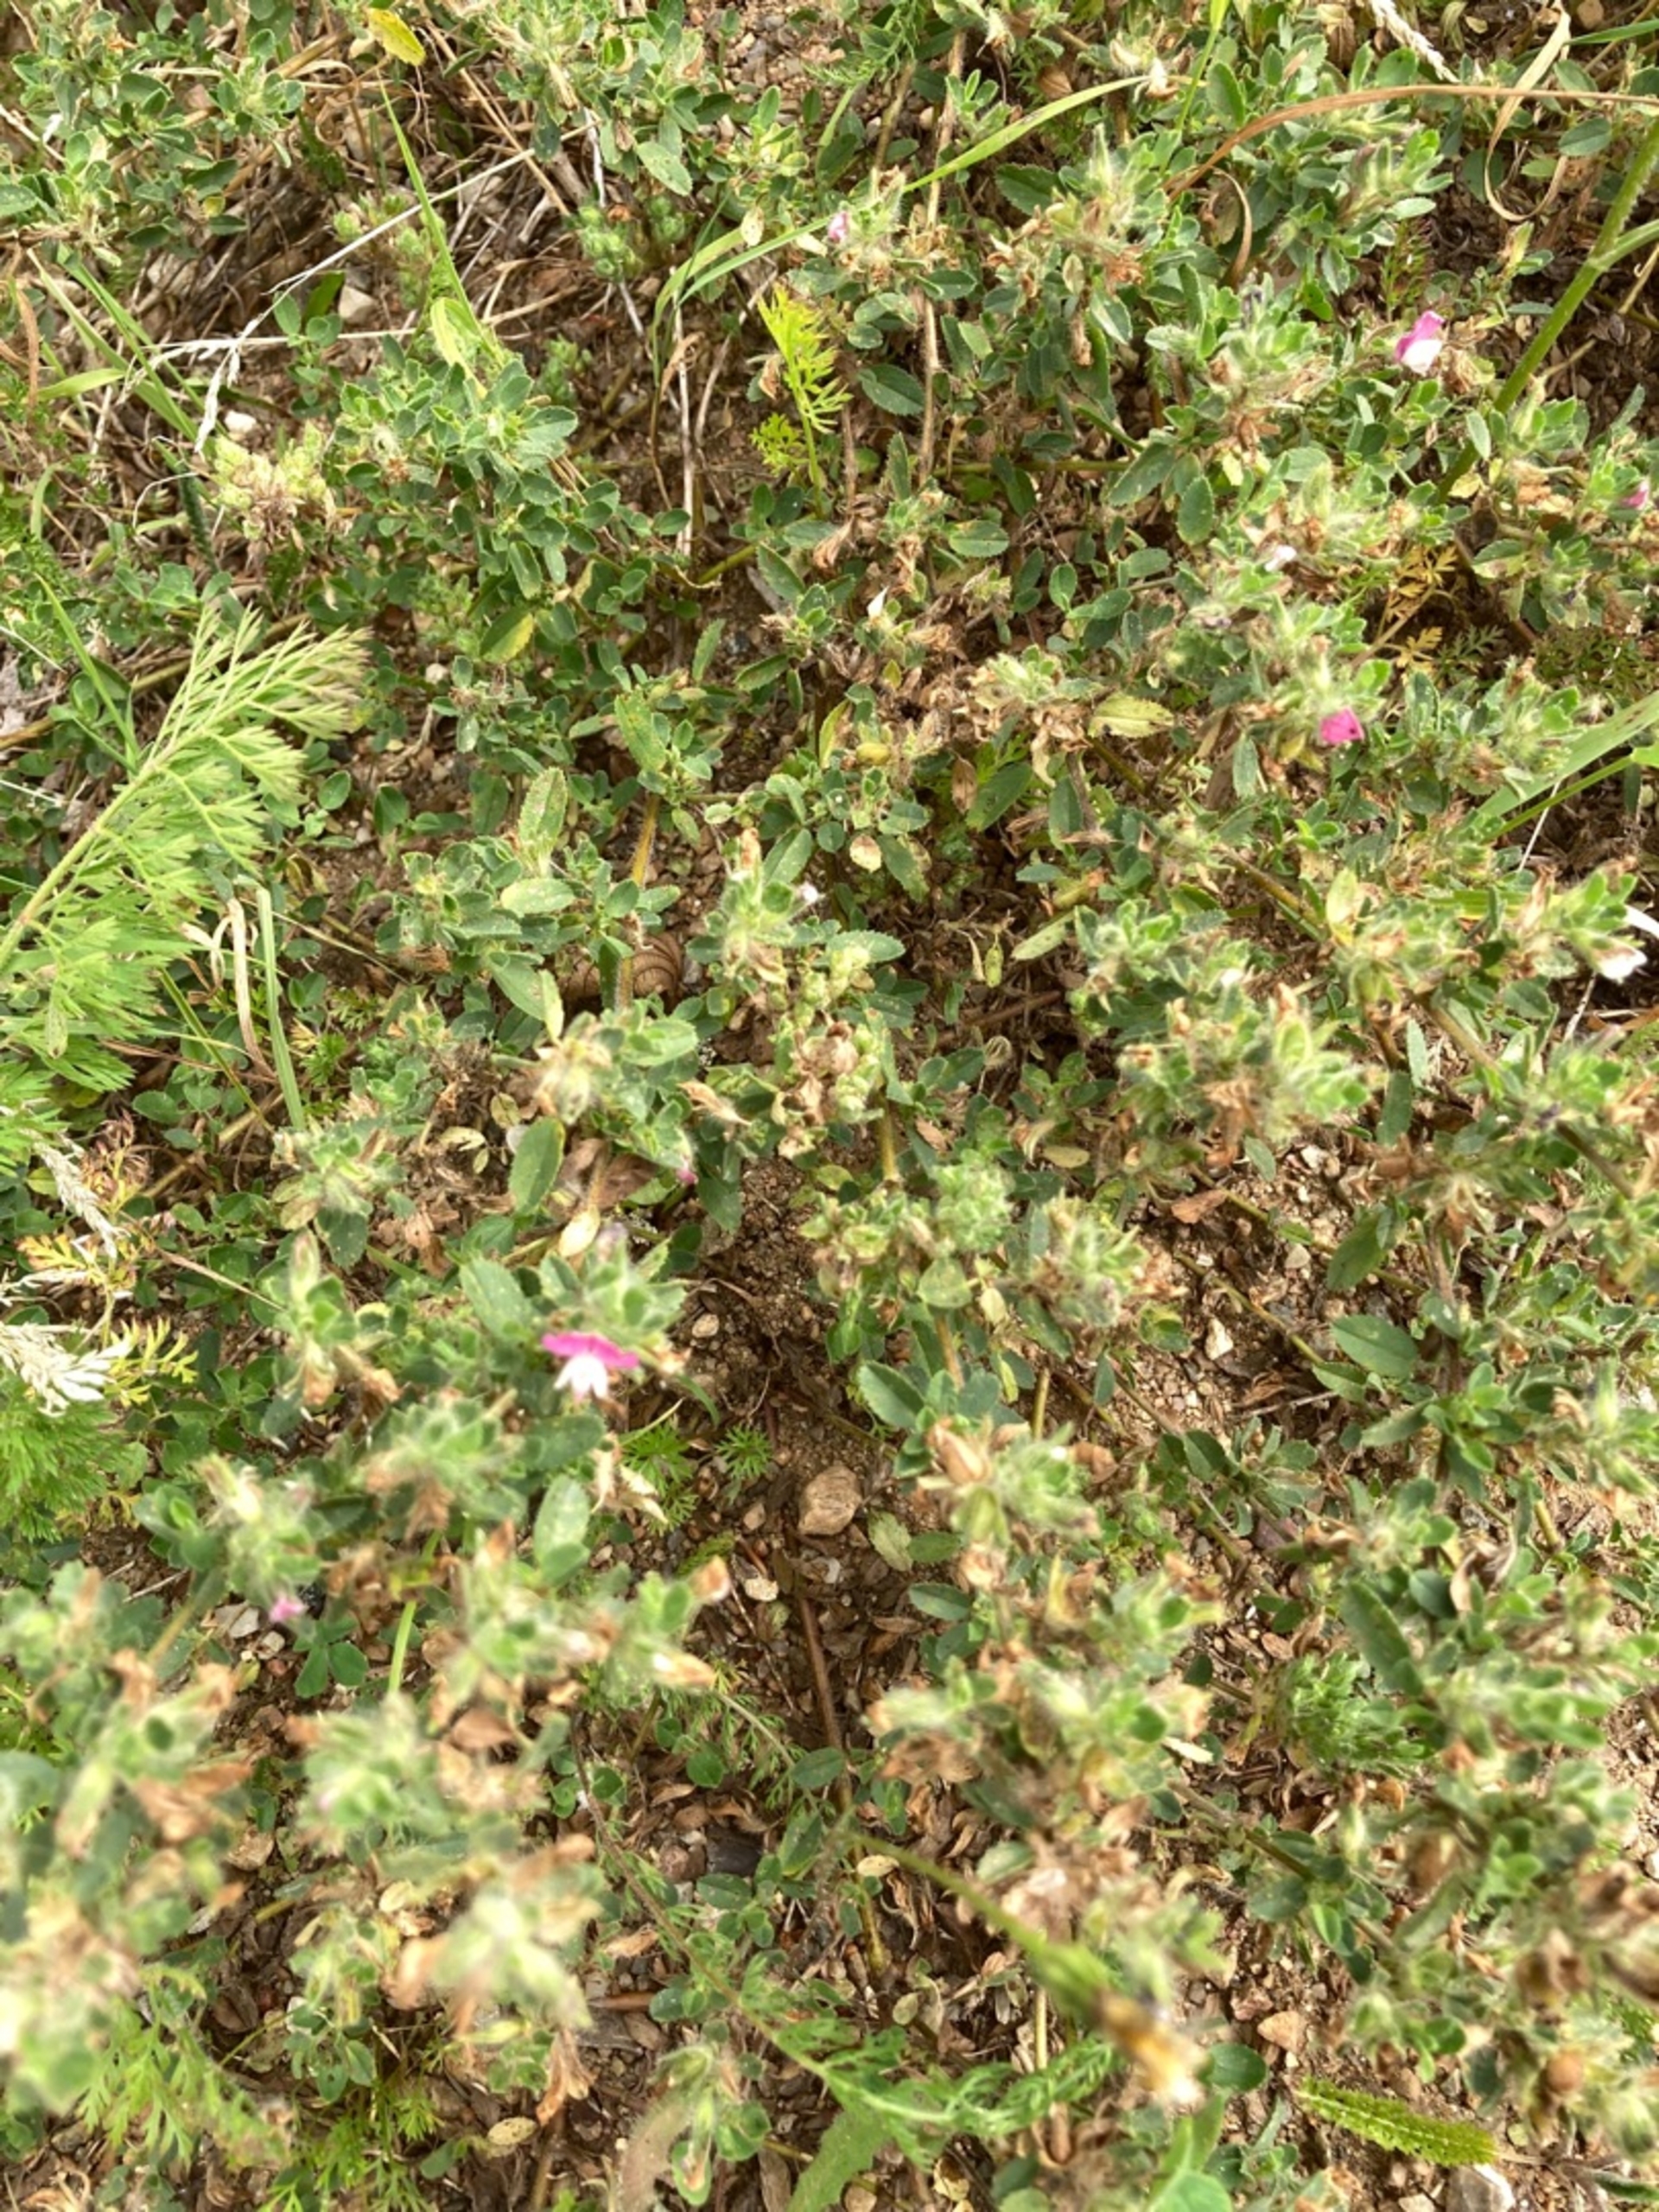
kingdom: Plantae
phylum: Tracheophyta
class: Magnoliopsida
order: Fabales
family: Fabaceae
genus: Ononis
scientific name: Ononis spinosa
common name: Mark-krageklo
